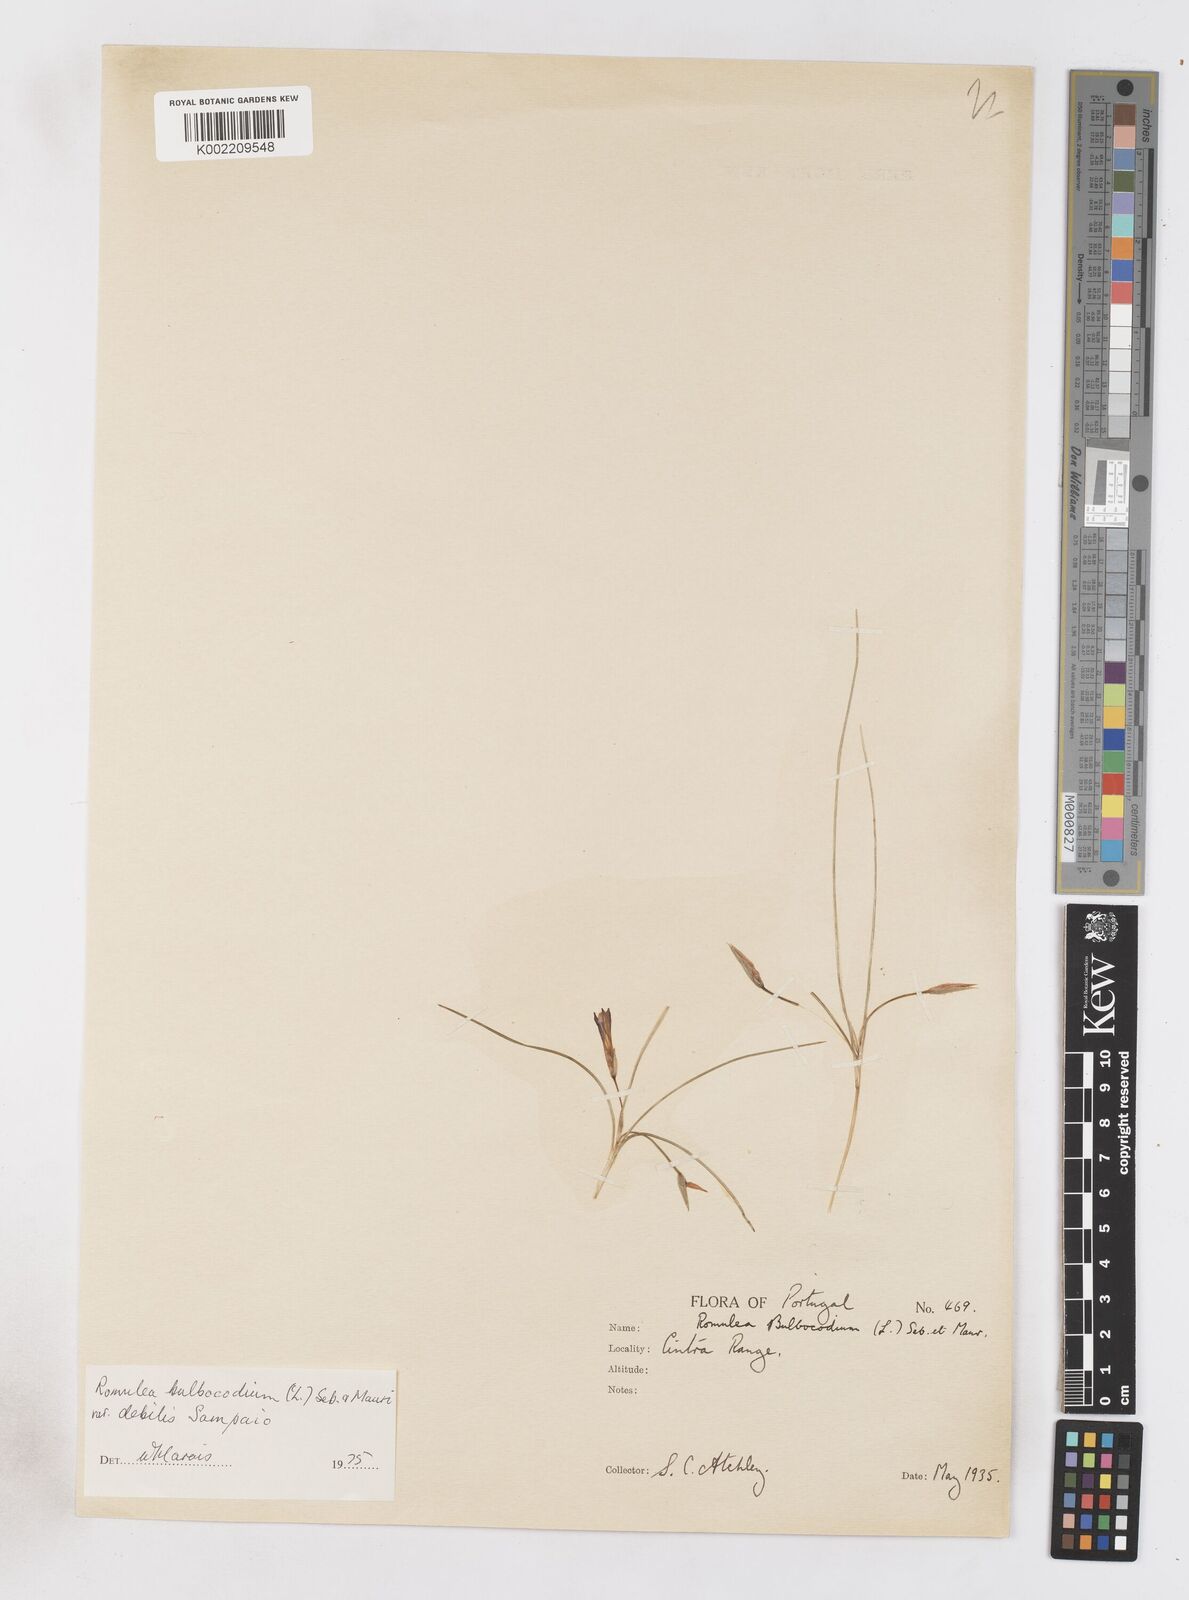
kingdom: Plantae
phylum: Tracheophyta
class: Liliopsida
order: Asparagales
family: Iridaceae
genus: Romulea
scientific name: Romulea bulbocodium
